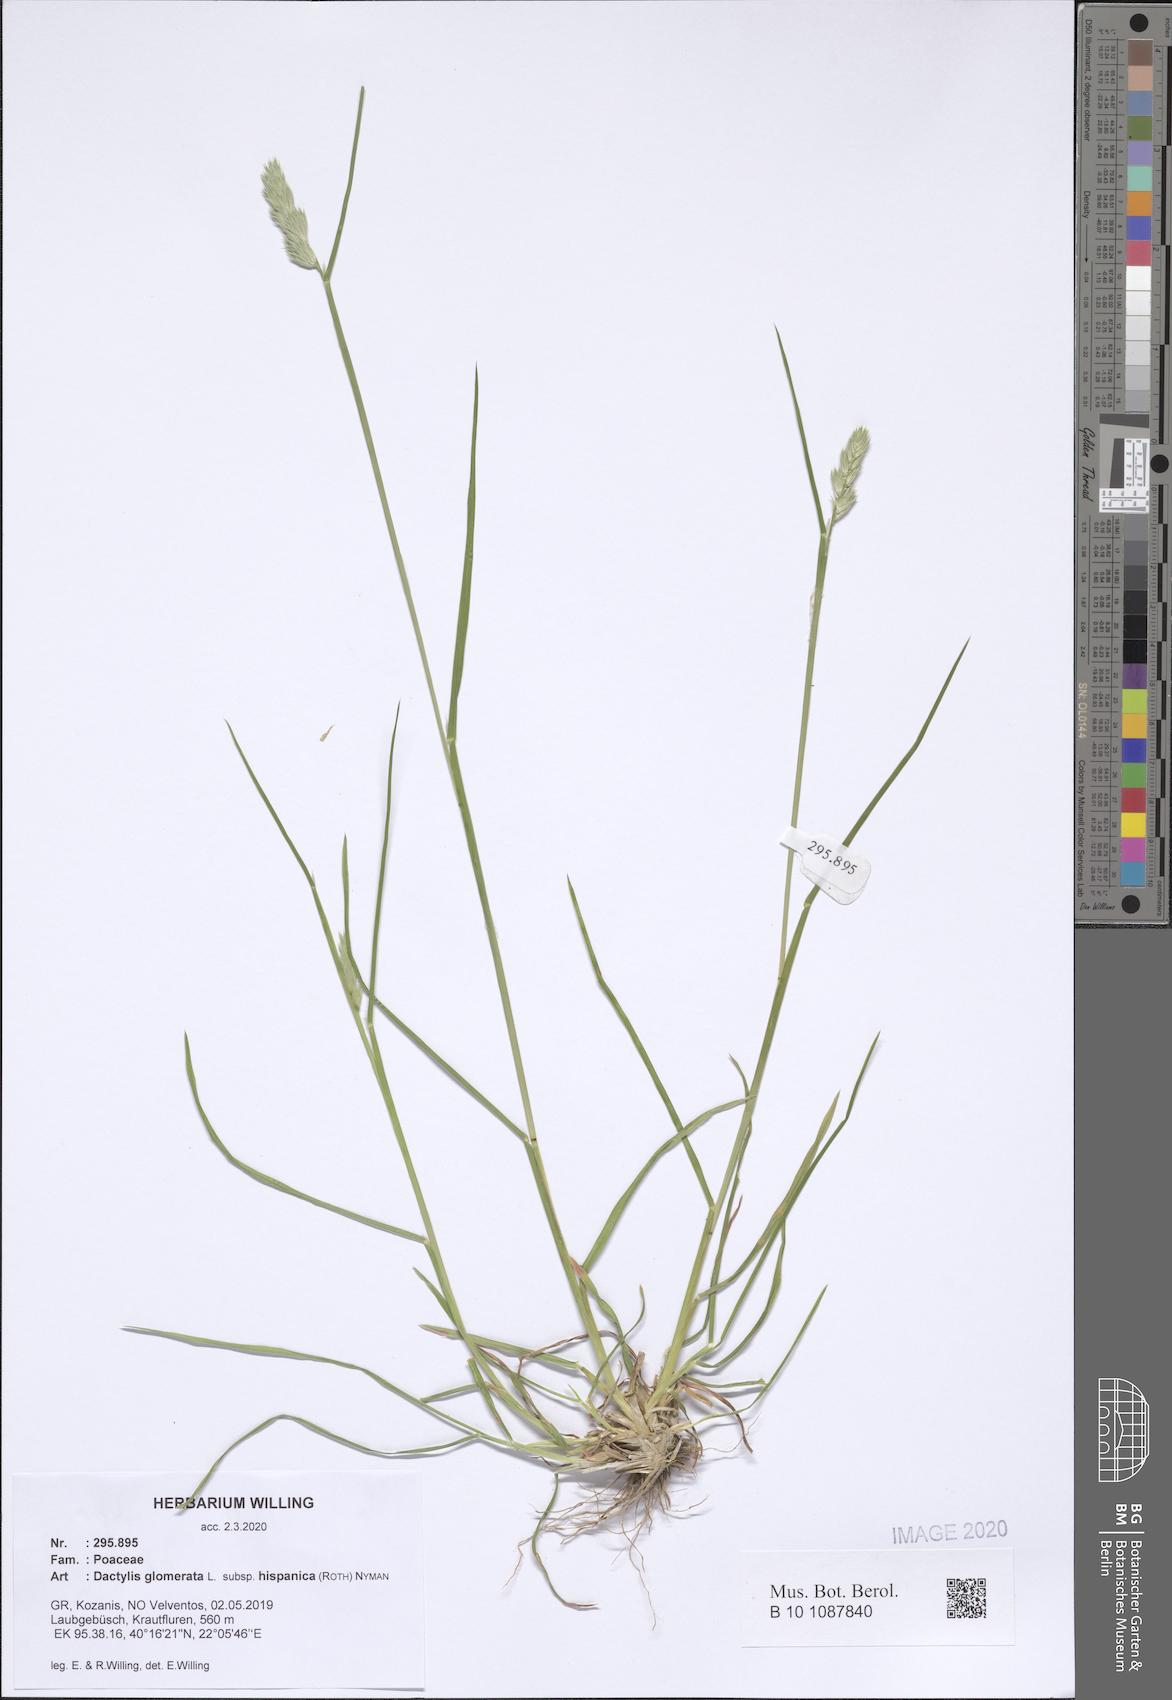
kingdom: Plantae
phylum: Tracheophyta
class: Liliopsida
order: Poales
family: Poaceae
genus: Dactylis
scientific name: Dactylis glomerata
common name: Orchardgrass
